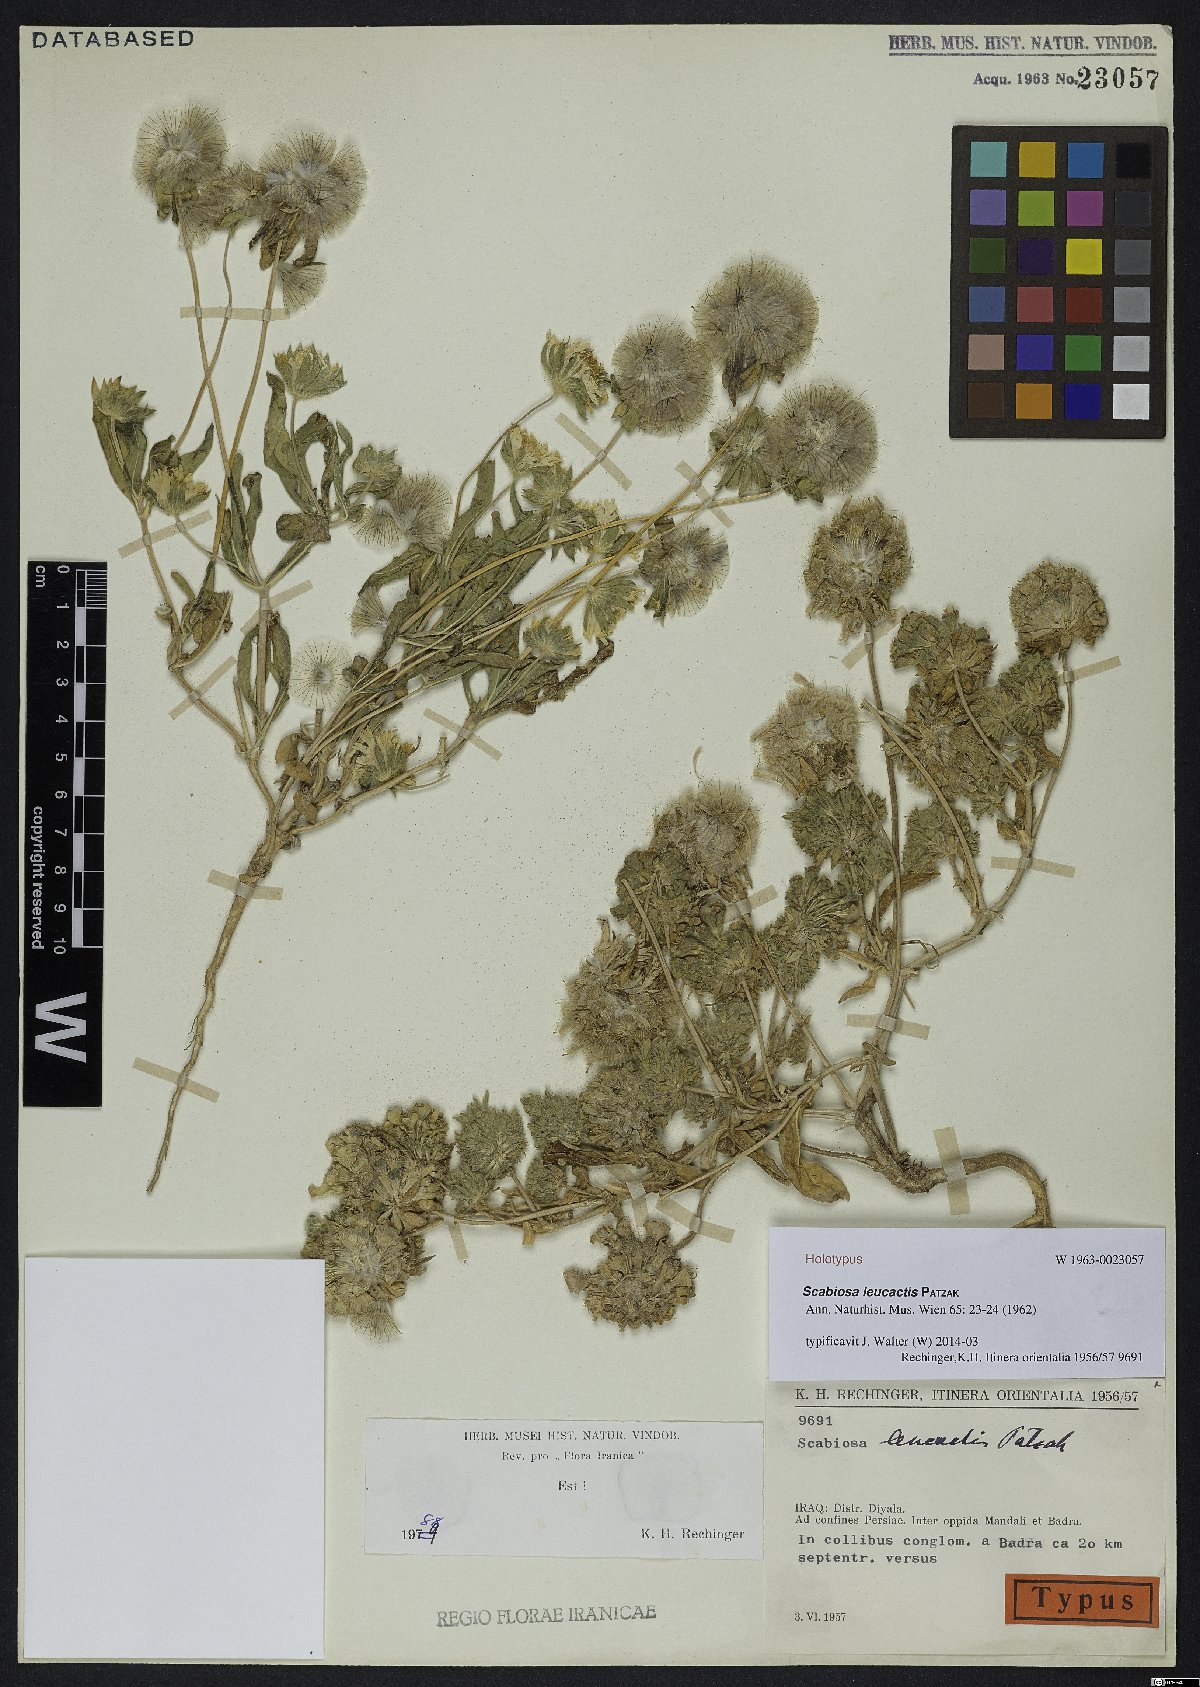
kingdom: Plantae
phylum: Tracheophyta
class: Magnoliopsida
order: Dipsacales
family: Caprifoliaceae
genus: Lomelosia
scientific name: Lomelosia leucactis
